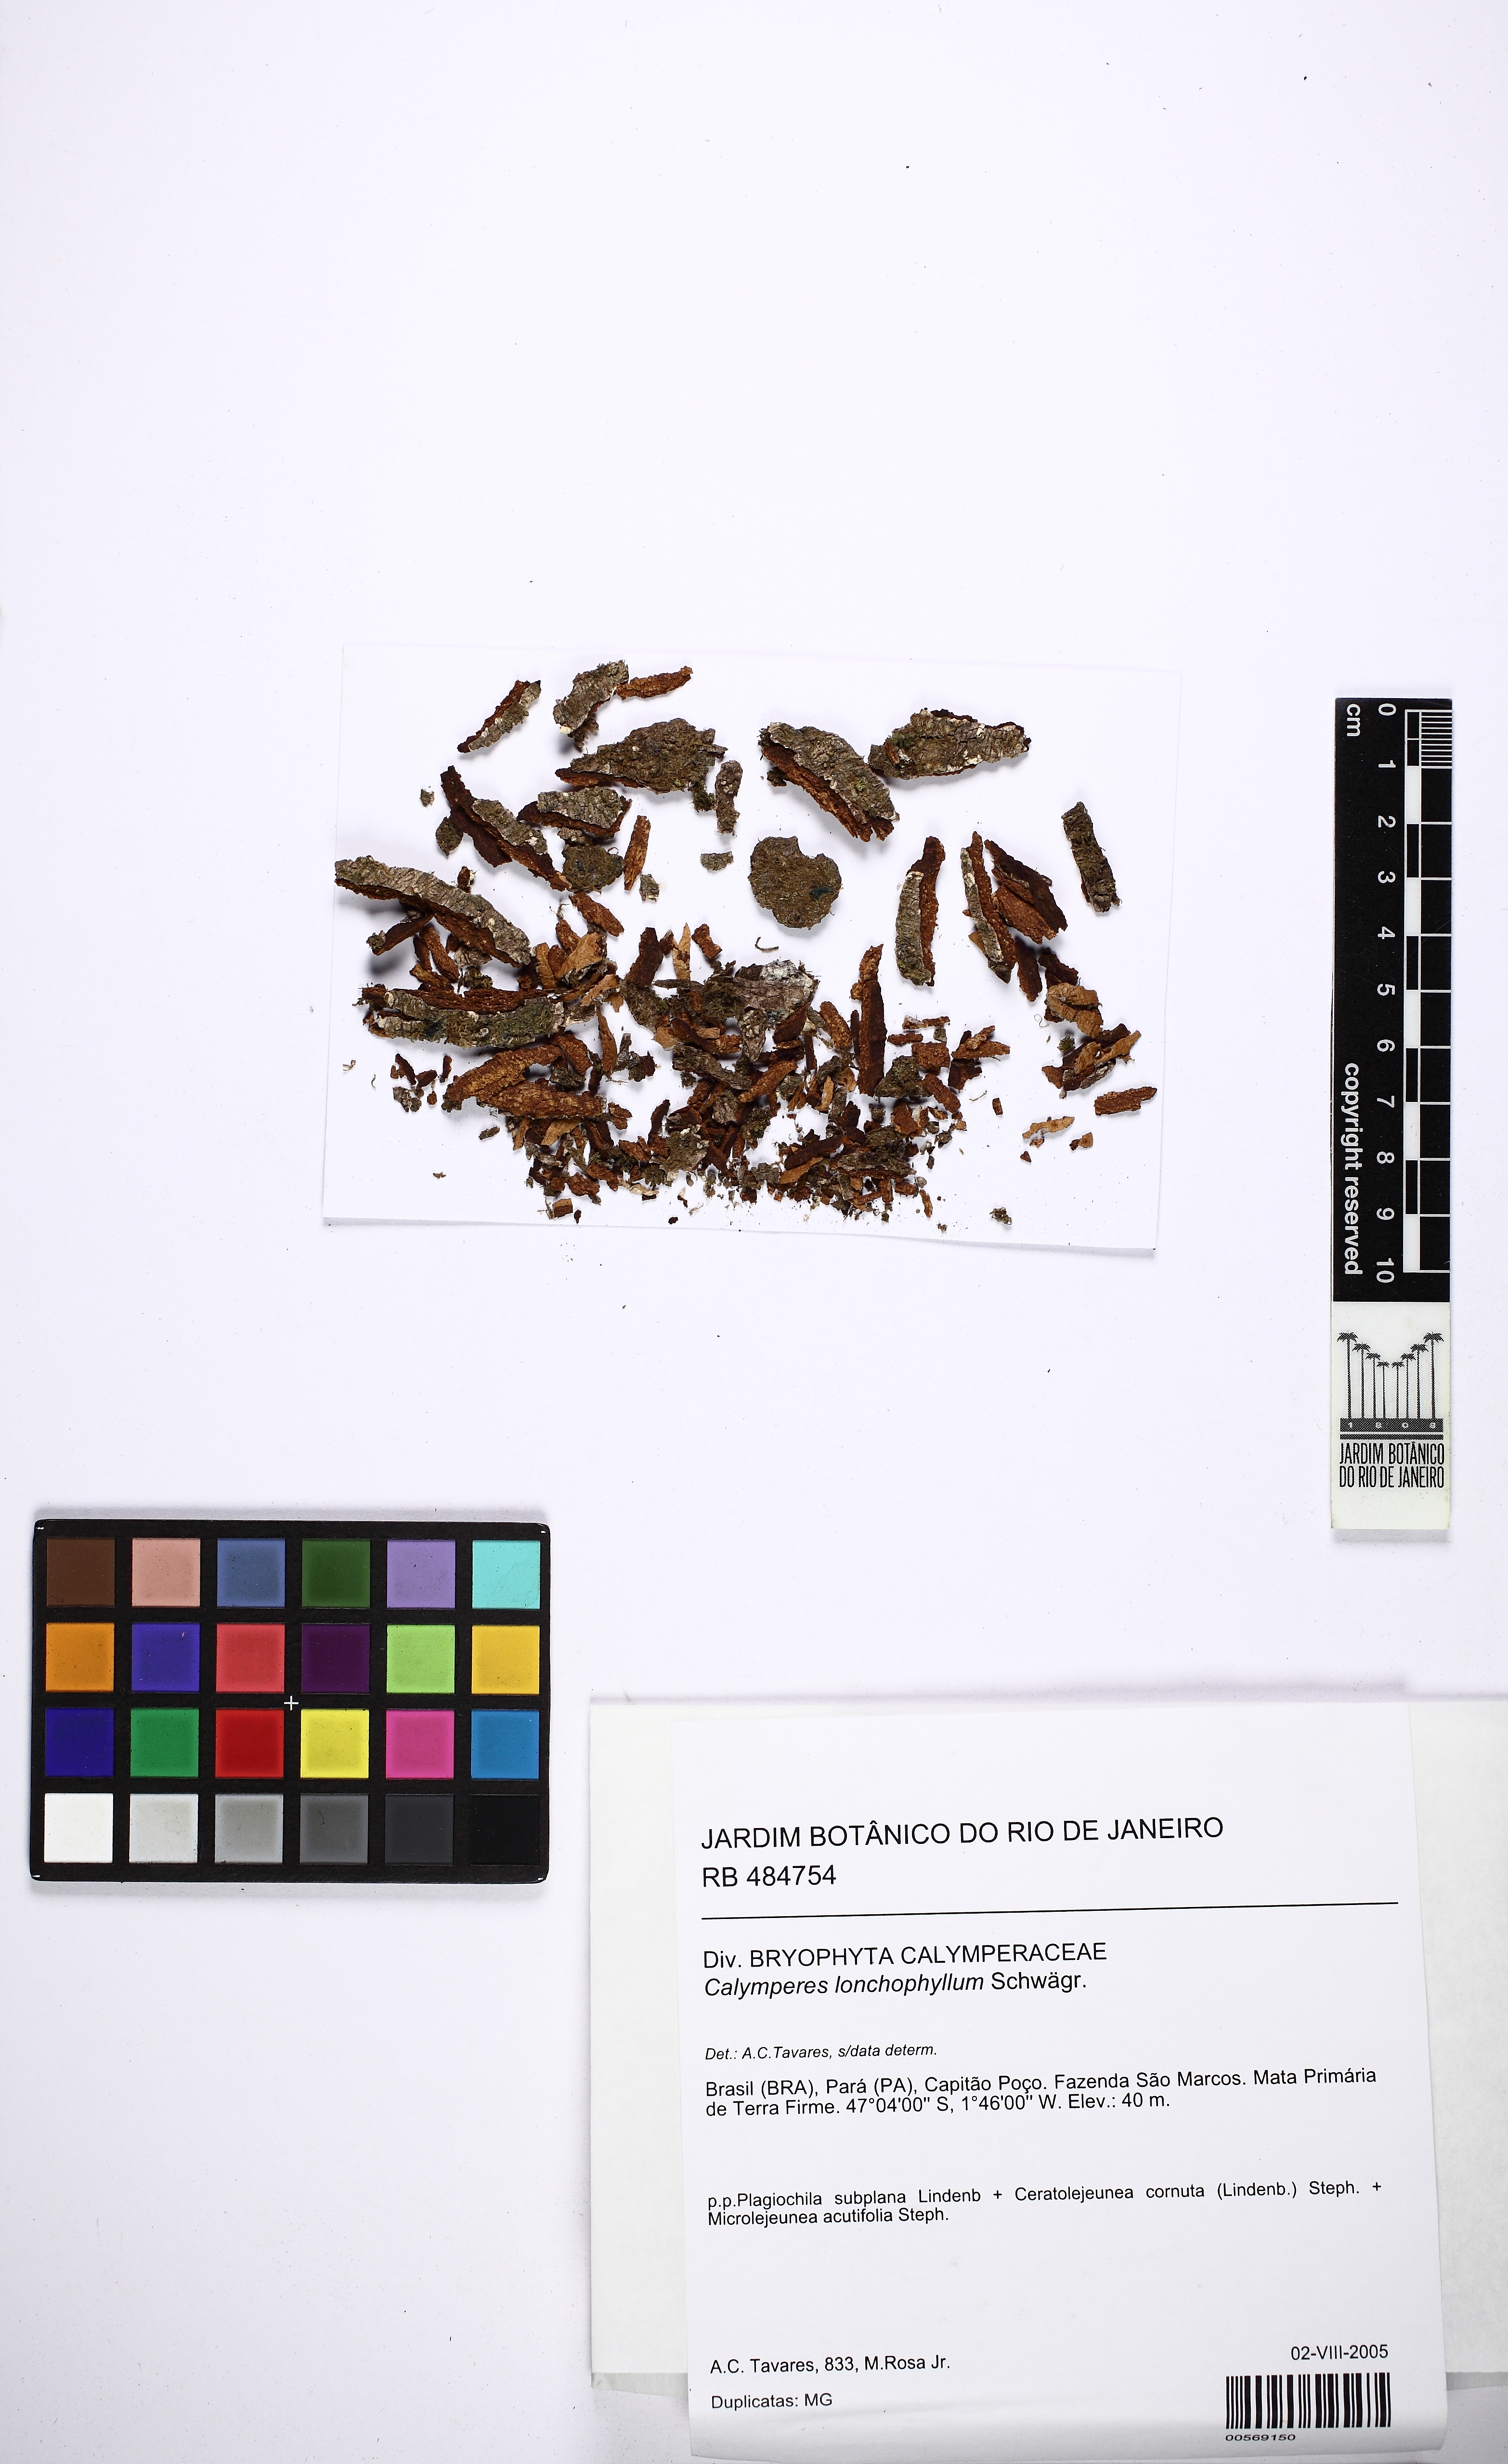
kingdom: Plantae
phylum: Bryophyta
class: Bryopsida
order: Dicranales
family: Calymperaceae
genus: Calymperes
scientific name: Calymperes lonchophyllum
